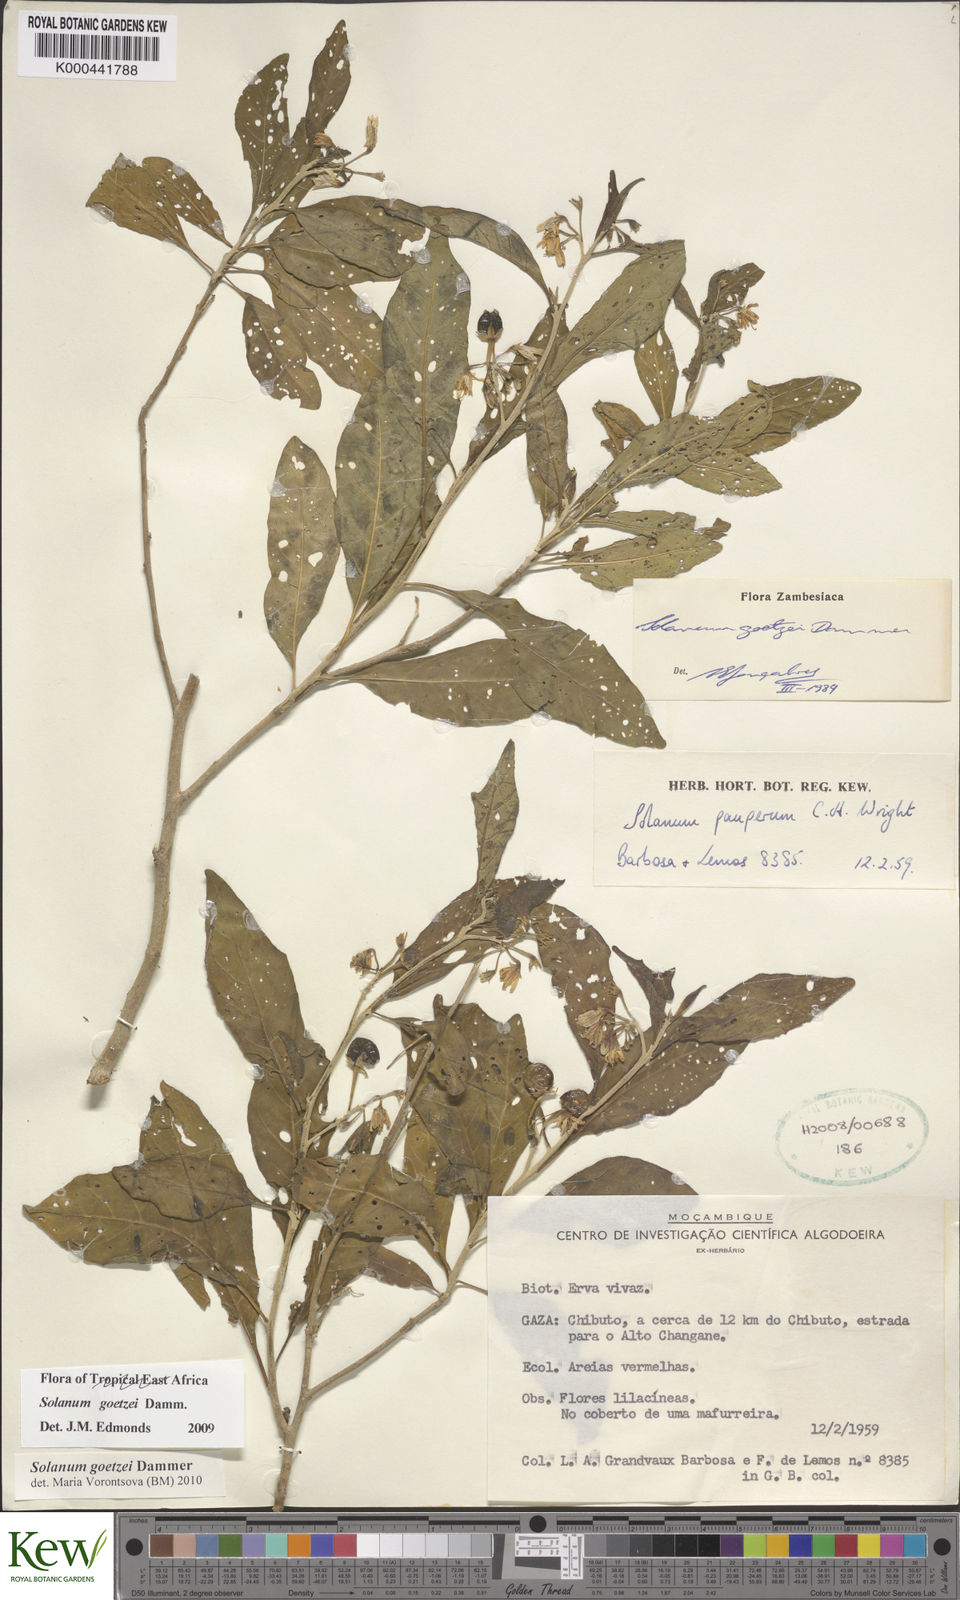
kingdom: Plantae
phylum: Tracheophyta
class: Magnoliopsida
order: Solanales
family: Solanaceae
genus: Solanum
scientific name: Solanum goetzei
